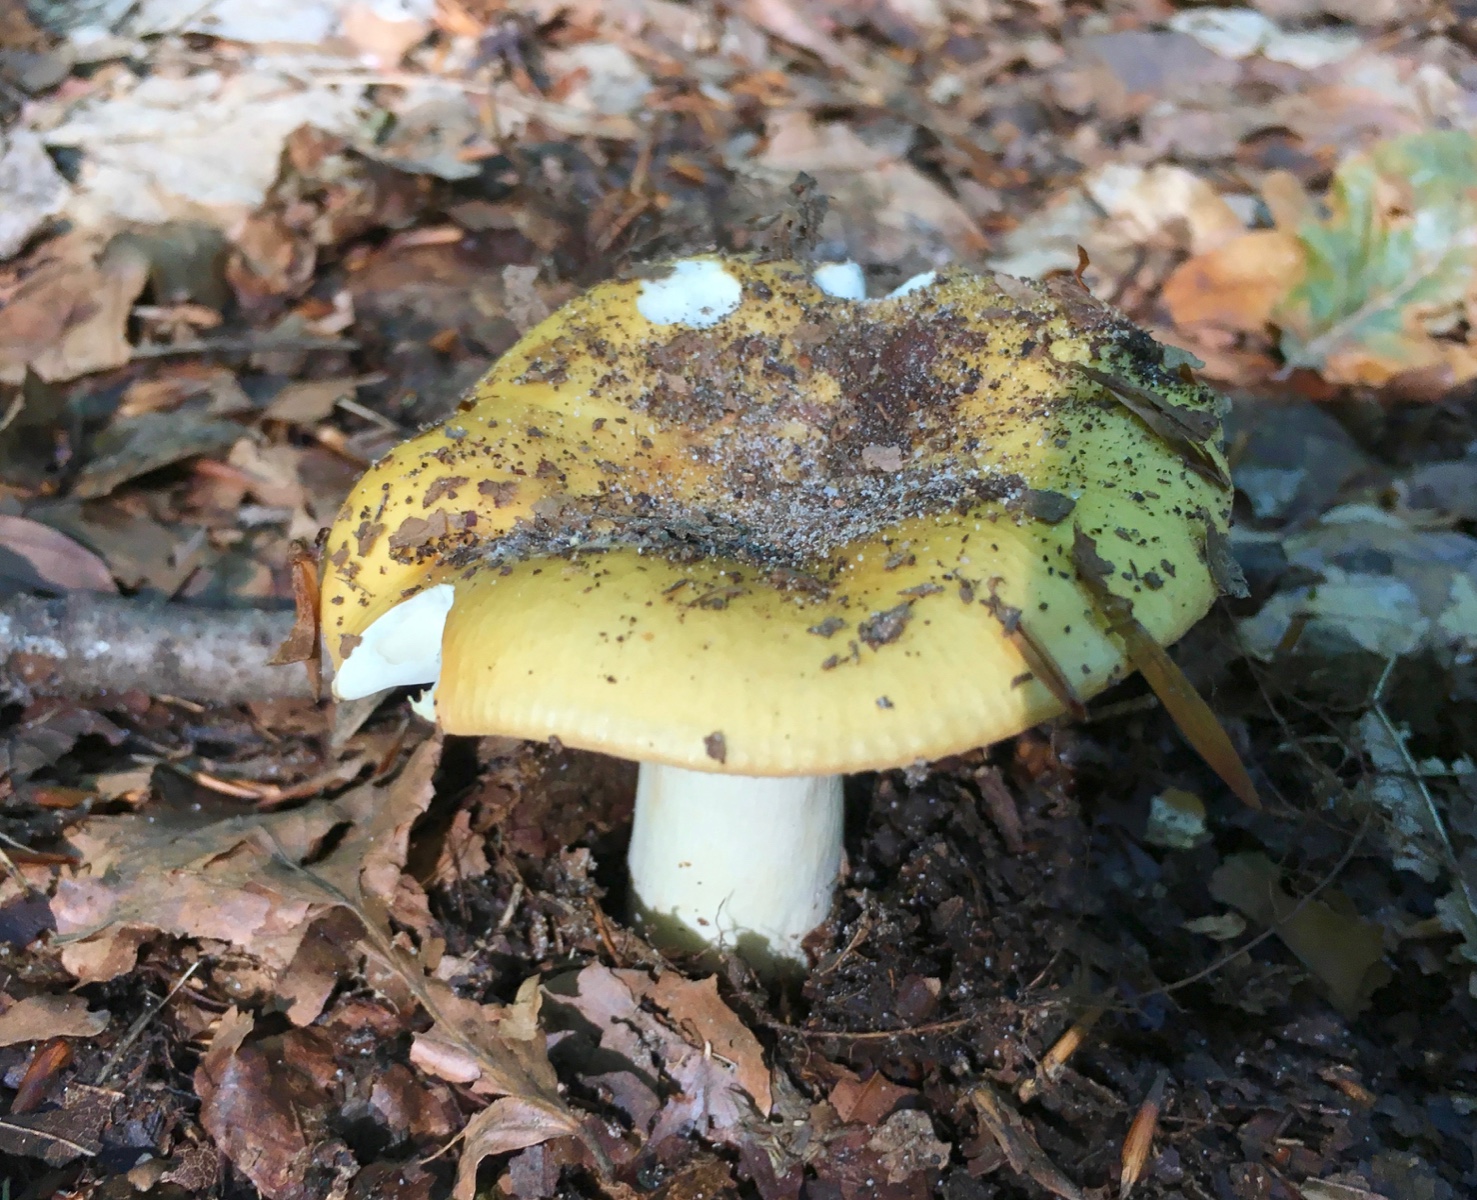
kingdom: Fungi
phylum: Basidiomycota
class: Agaricomycetes
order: Russulales
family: Russulaceae
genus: Russula
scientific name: Russula ochroleuca
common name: okkergul skørhat
